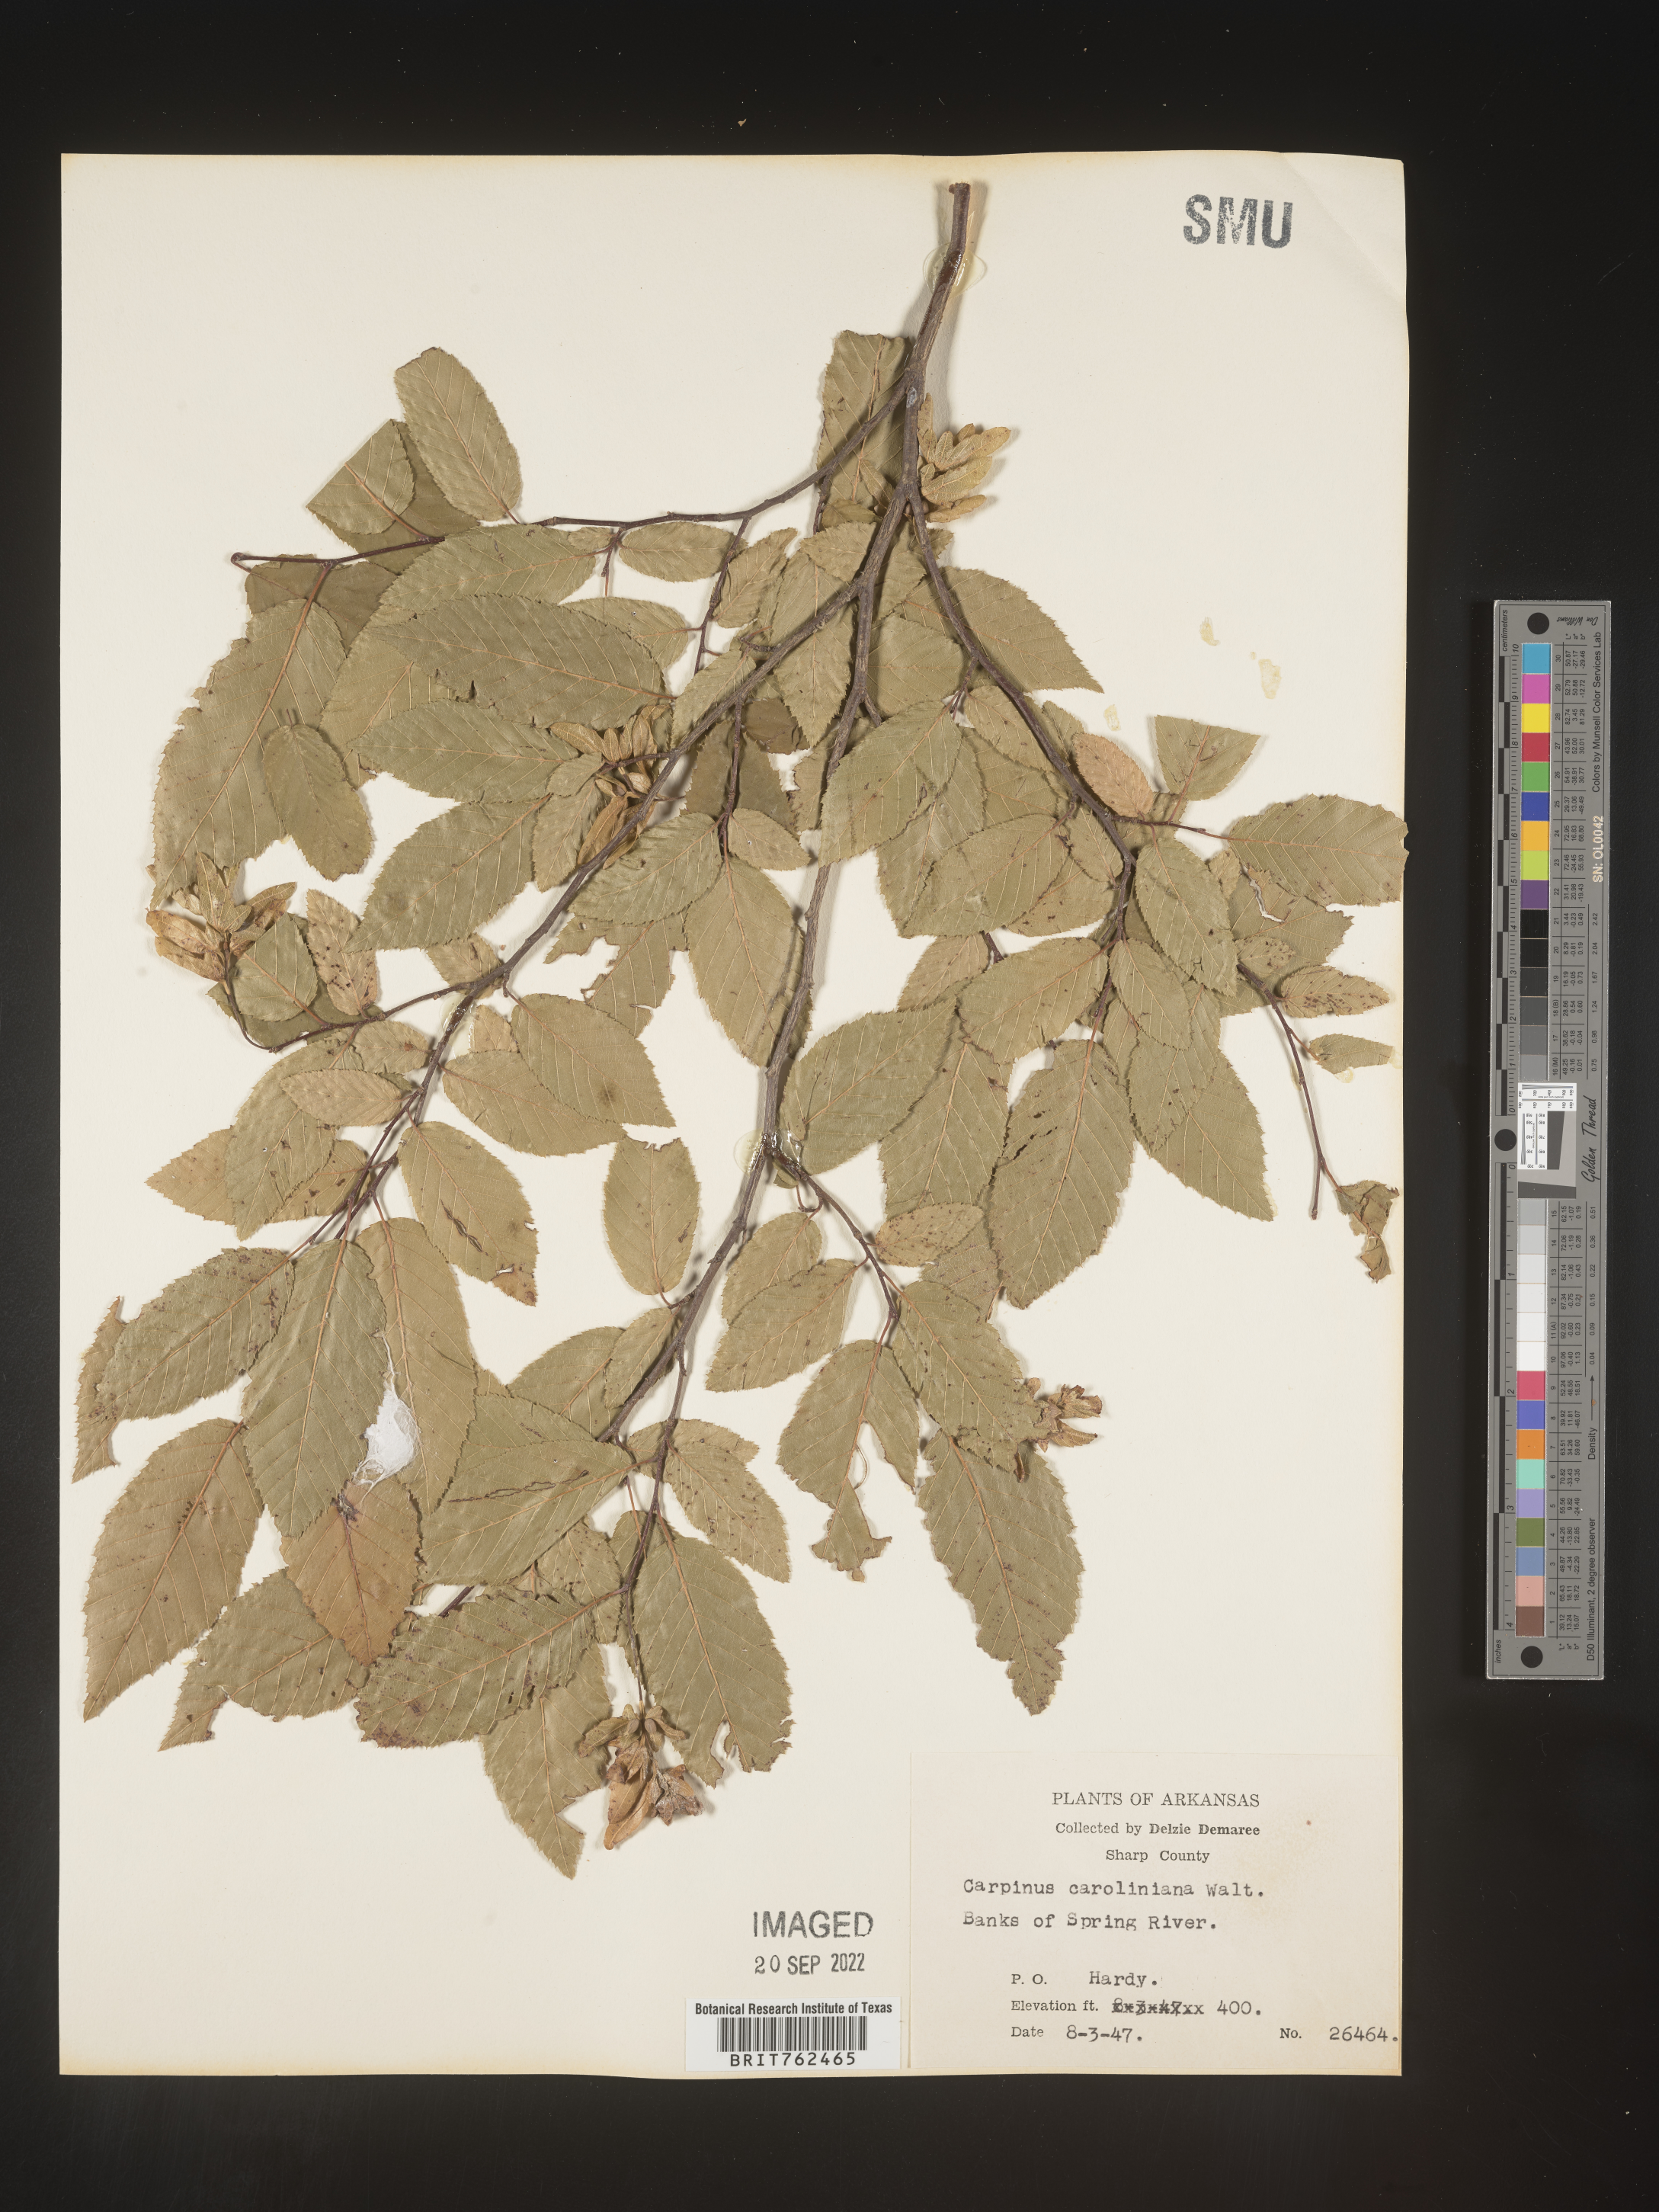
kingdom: Plantae
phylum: Tracheophyta
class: Magnoliopsida
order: Fagales
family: Betulaceae
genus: Carpinus
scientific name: Carpinus caroliniana
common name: American hornbeam
